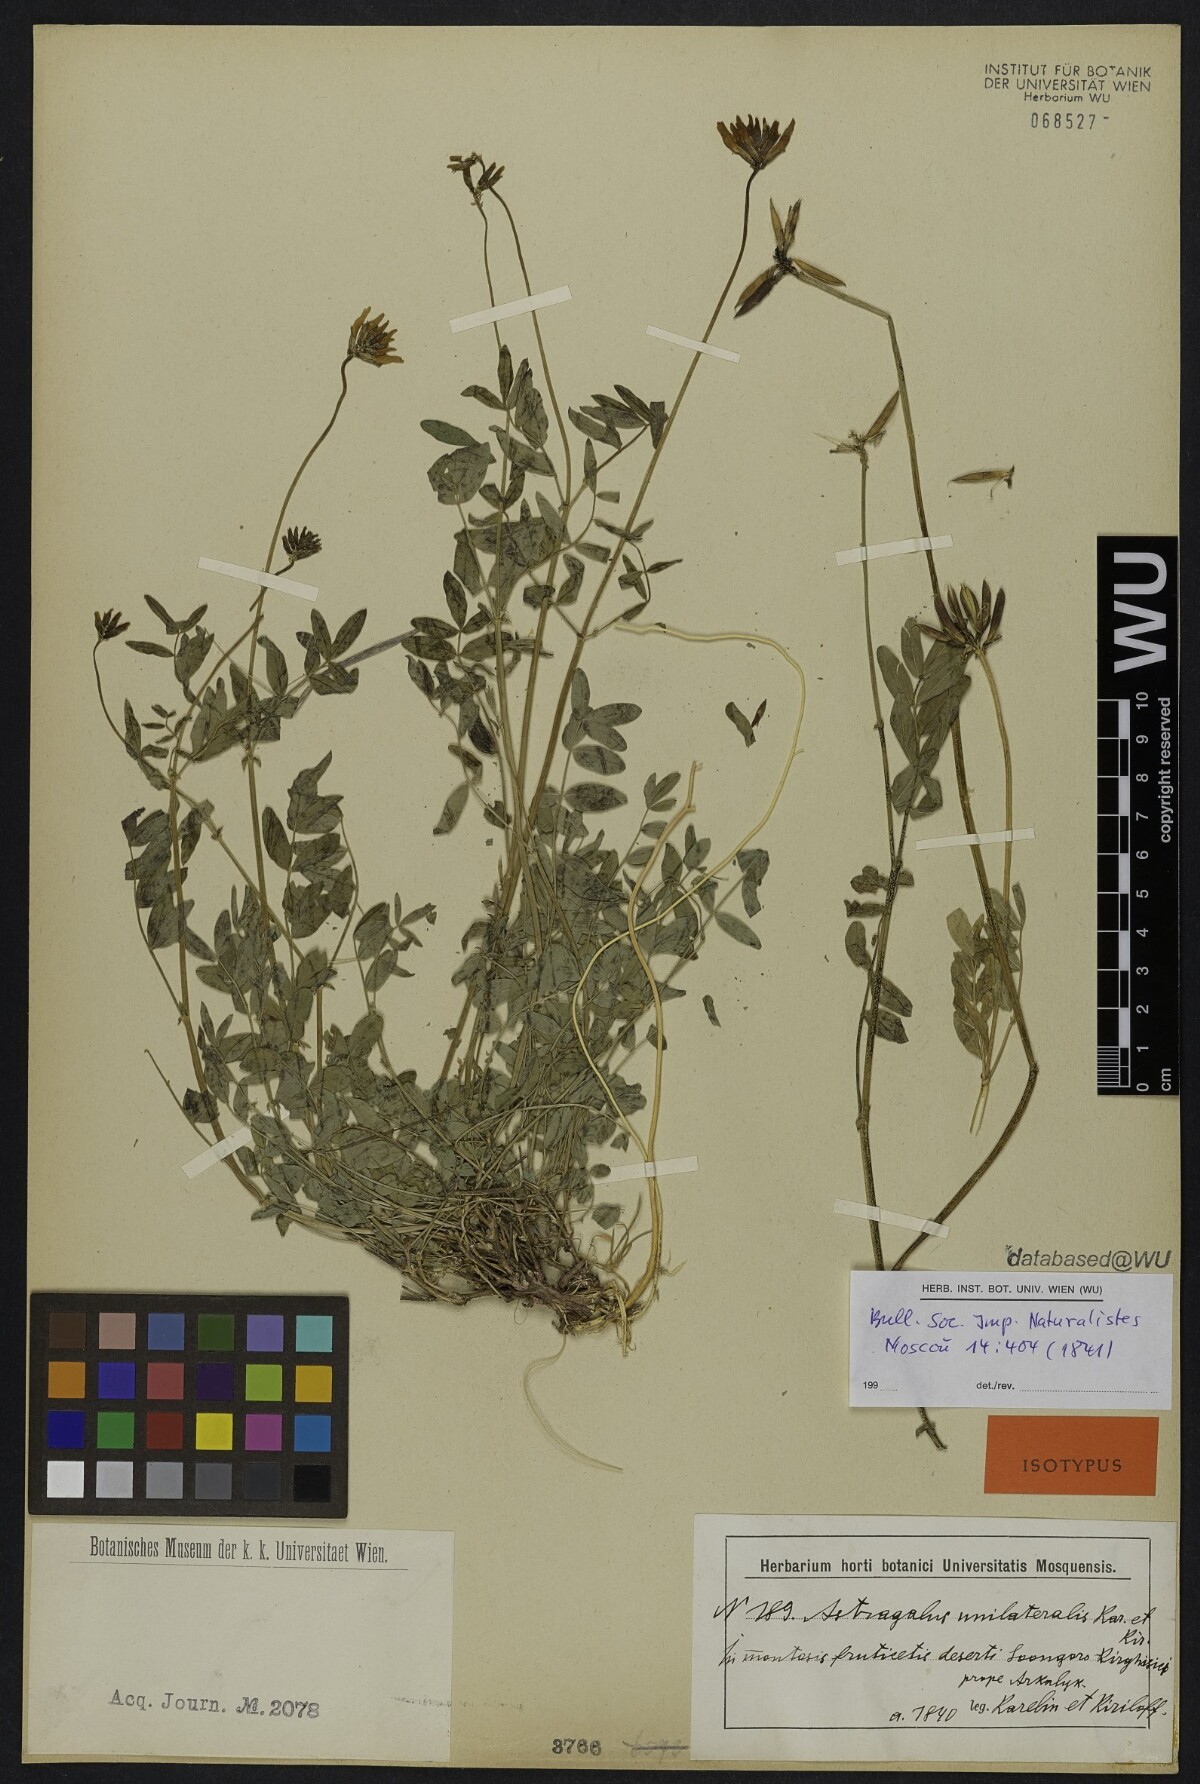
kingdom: Plantae
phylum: Tracheophyta
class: Magnoliopsida
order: Fabales
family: Fabaceae
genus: Astragalus
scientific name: Astragalus unilateralis
